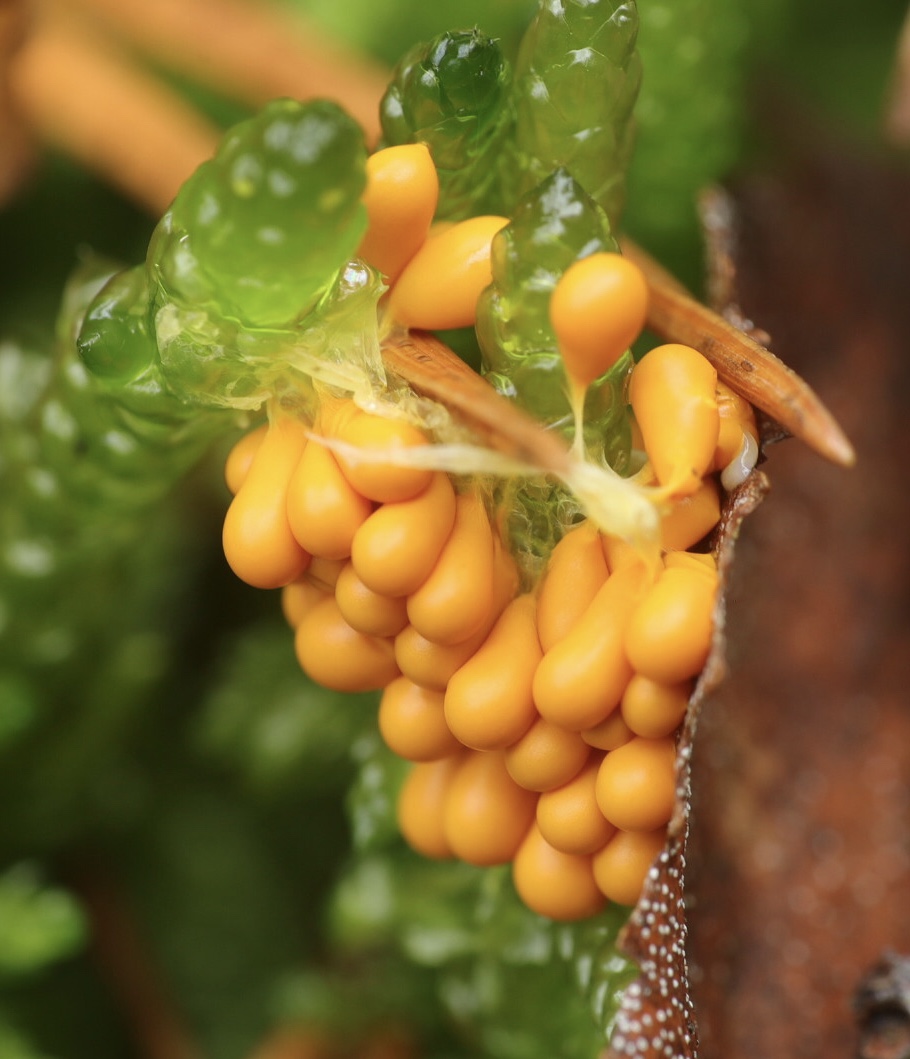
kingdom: Protozoa
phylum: Mycetozoa
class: Myxomycetes
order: Physarales
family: Physaraceae
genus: Leocarpus
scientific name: Leocarpus fragilis
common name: poleret glatfrø
